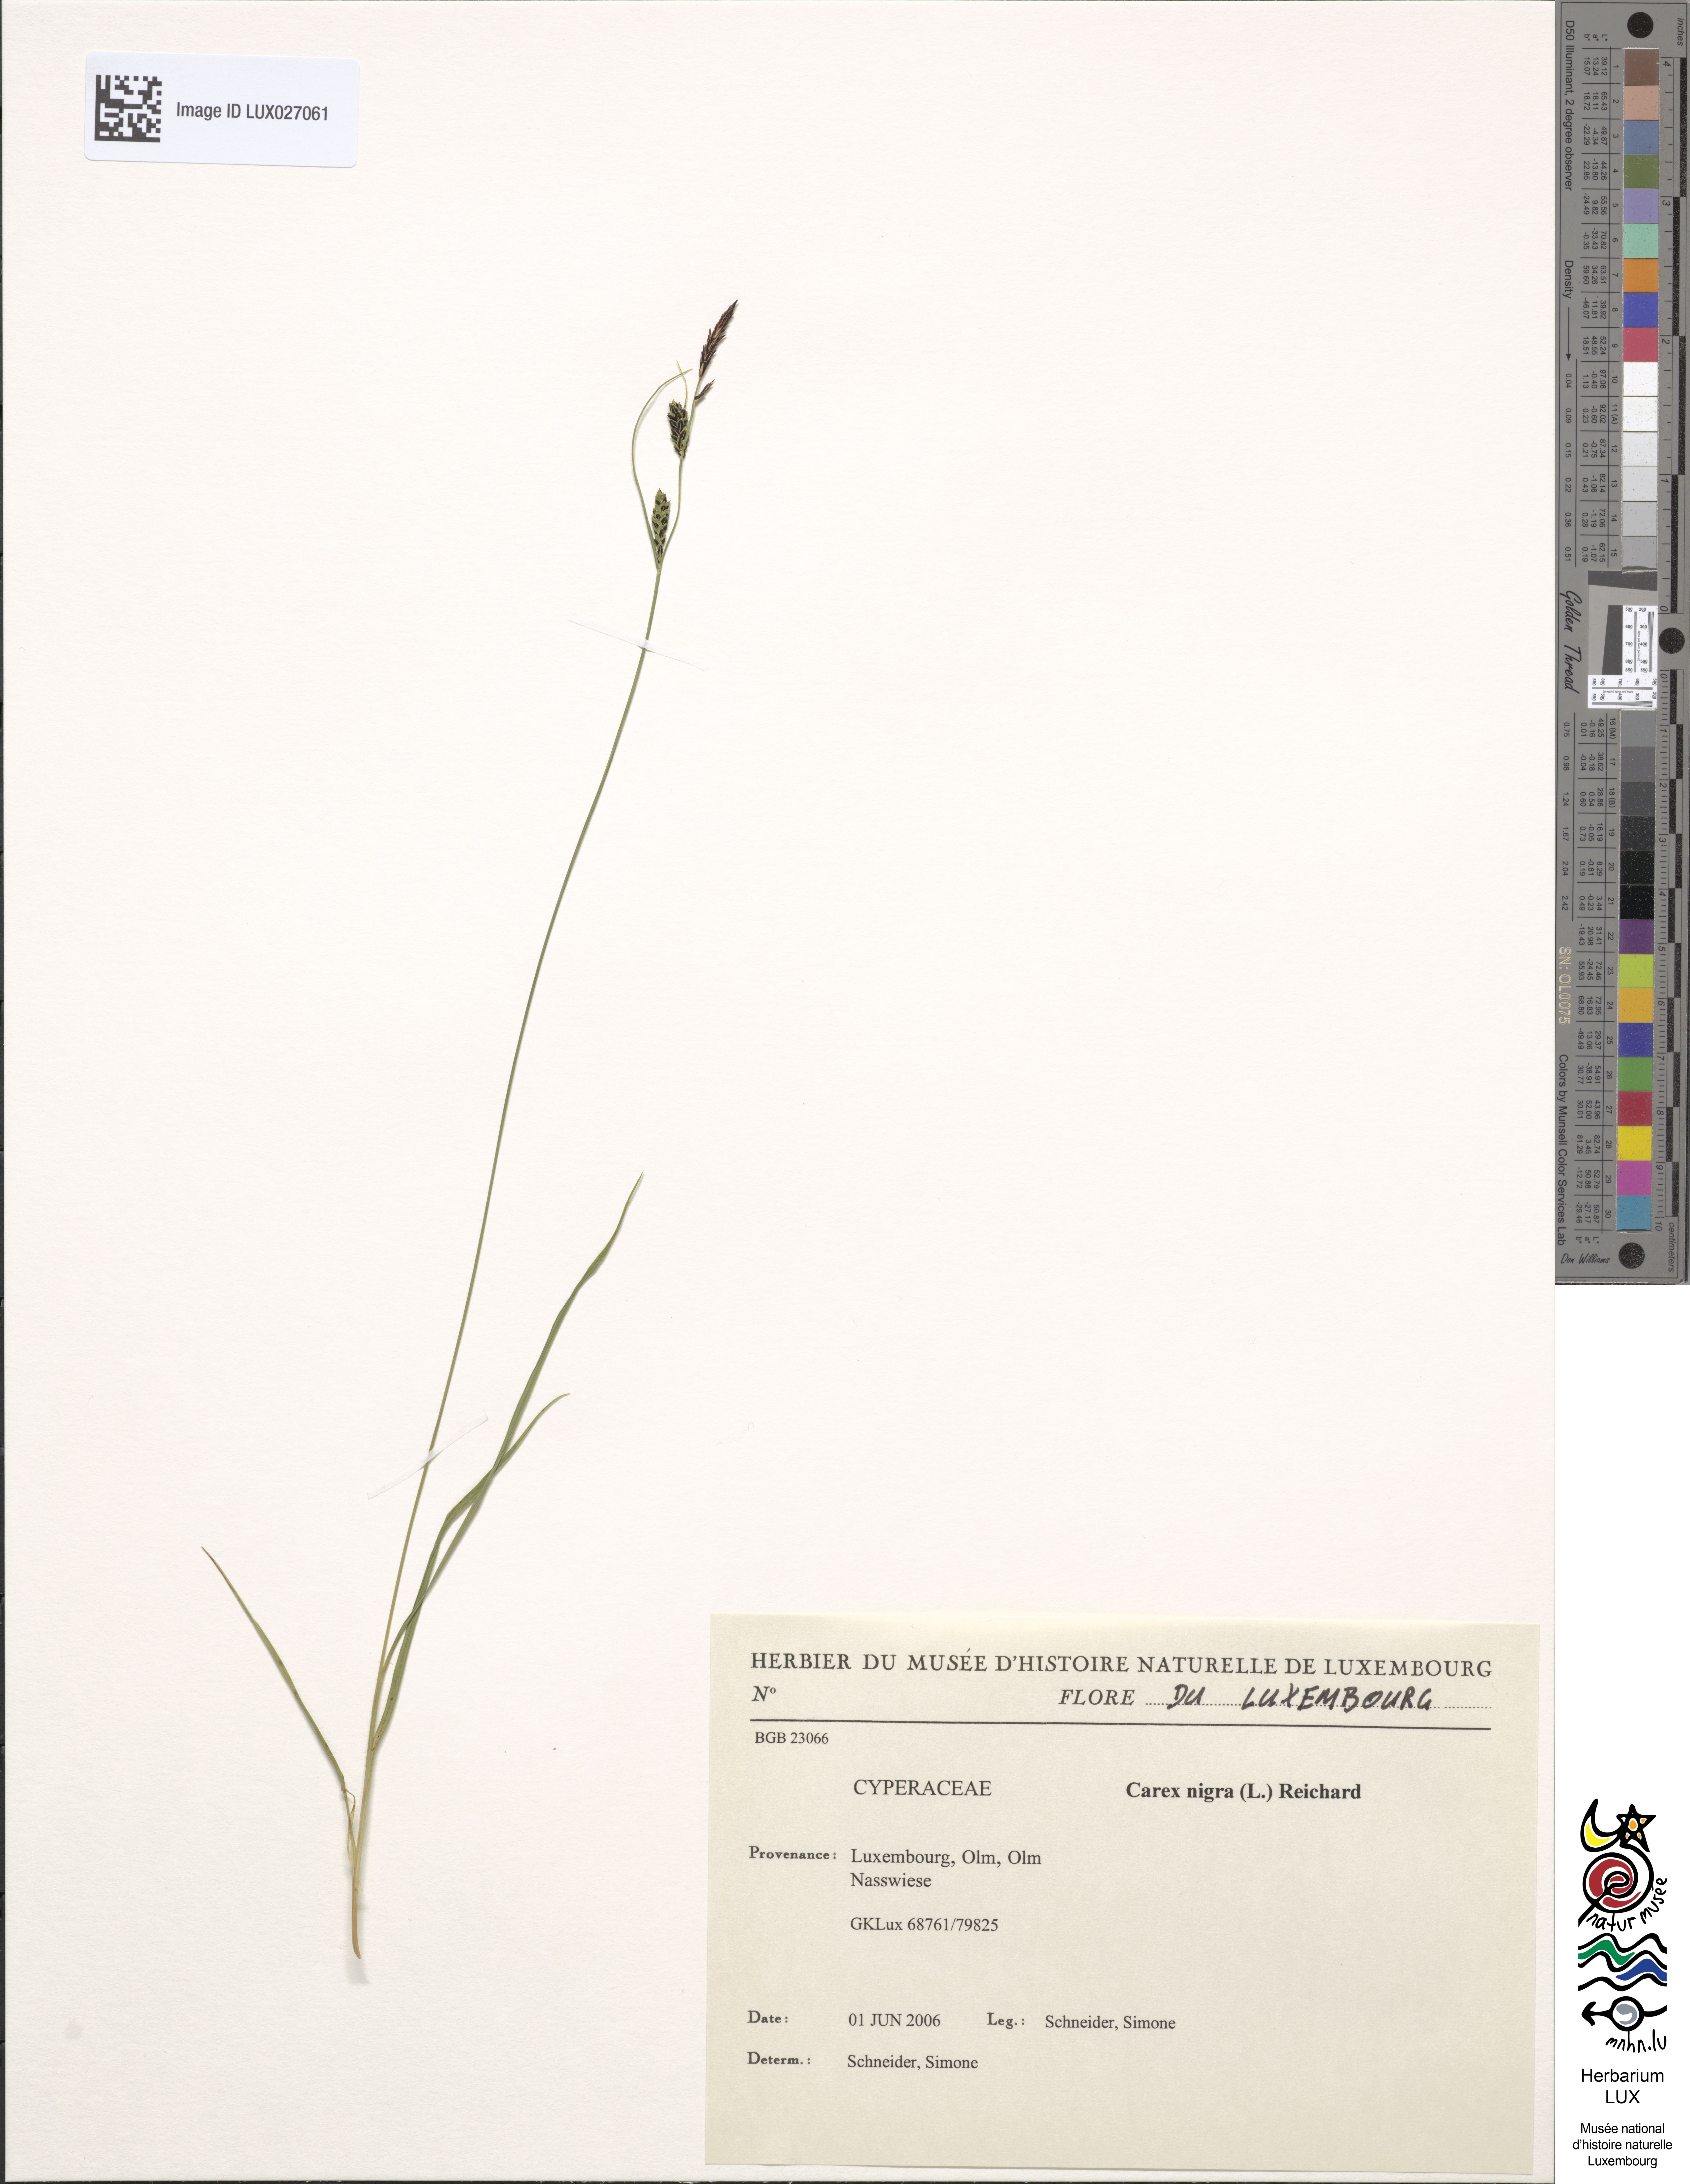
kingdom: Plantae
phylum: Tracheophyta
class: Liliopsida
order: Poales
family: Cyperaceae
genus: Carex
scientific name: Carex nigra
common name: Common sedge
